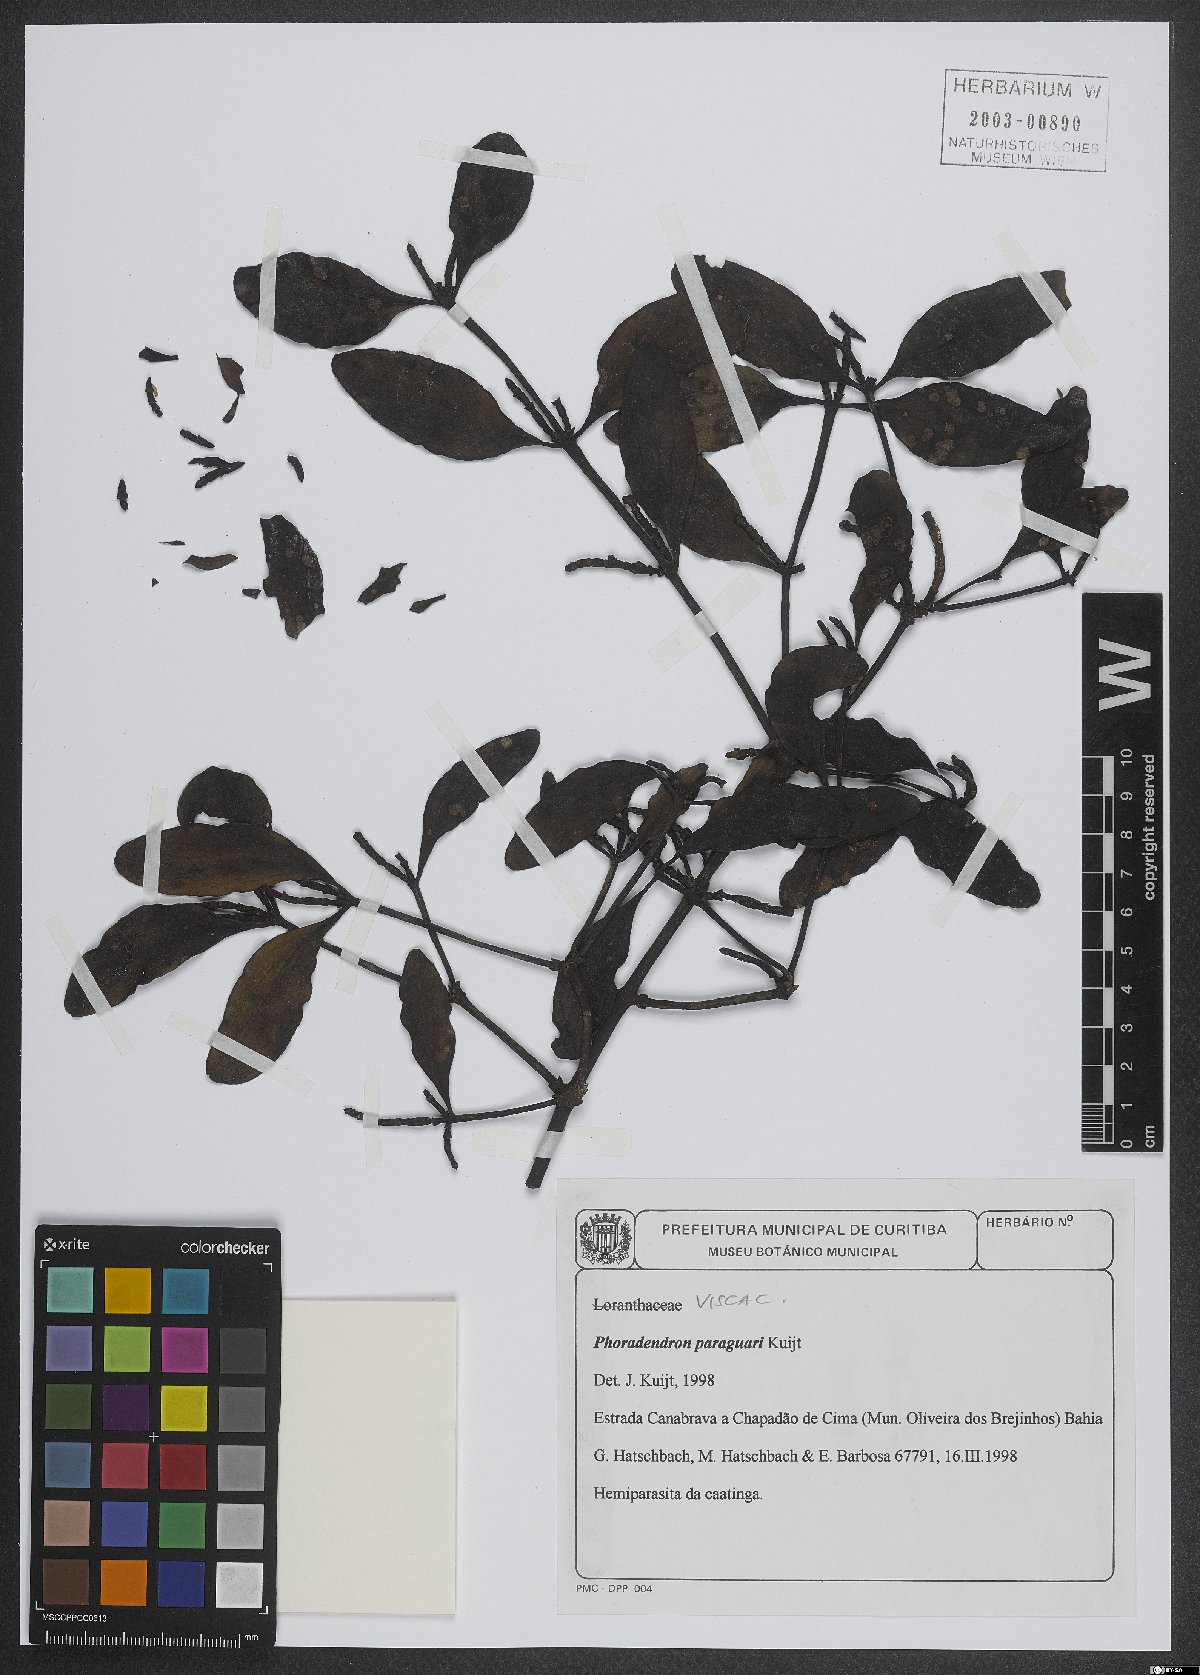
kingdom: Plantae
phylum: Tracheophyta
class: Magnoliopsida
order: Santalales
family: Viscaceae
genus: Phoradendron
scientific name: Phoradendron paraguari
